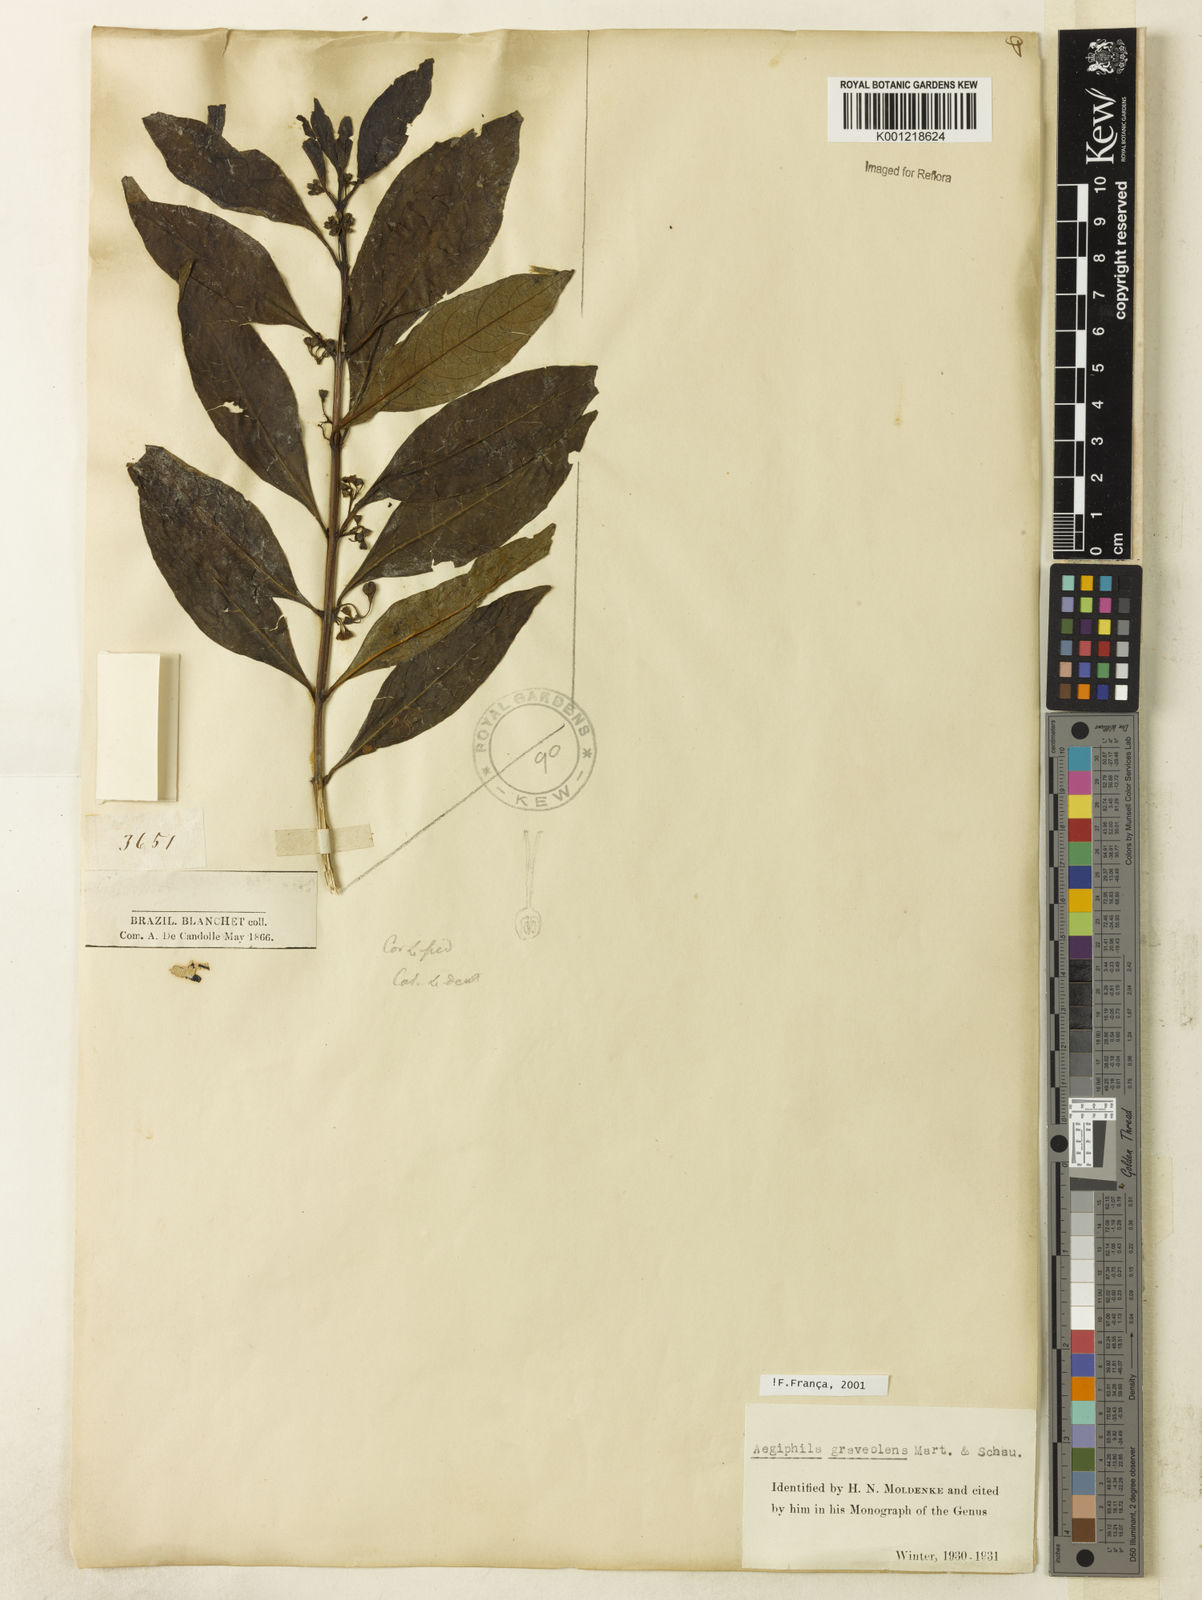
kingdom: Plantae
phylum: Tracheophyta
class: Magnoliopsida
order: Lamiales
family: Lamiaceae
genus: Aegiphila
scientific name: Aegiphila graveolens
